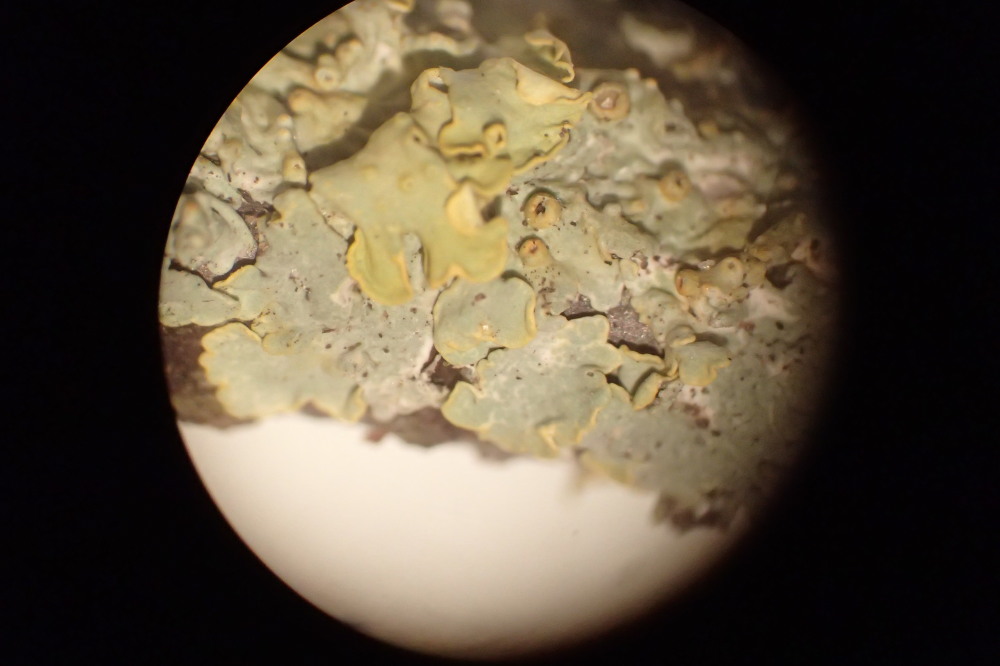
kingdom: Fungi
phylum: Ascomycota
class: Lecanoromycetes
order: Teloschistales
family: Teloschistaceae
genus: Xanthoria
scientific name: Xanthoria parietina
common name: almindelig væggelav
